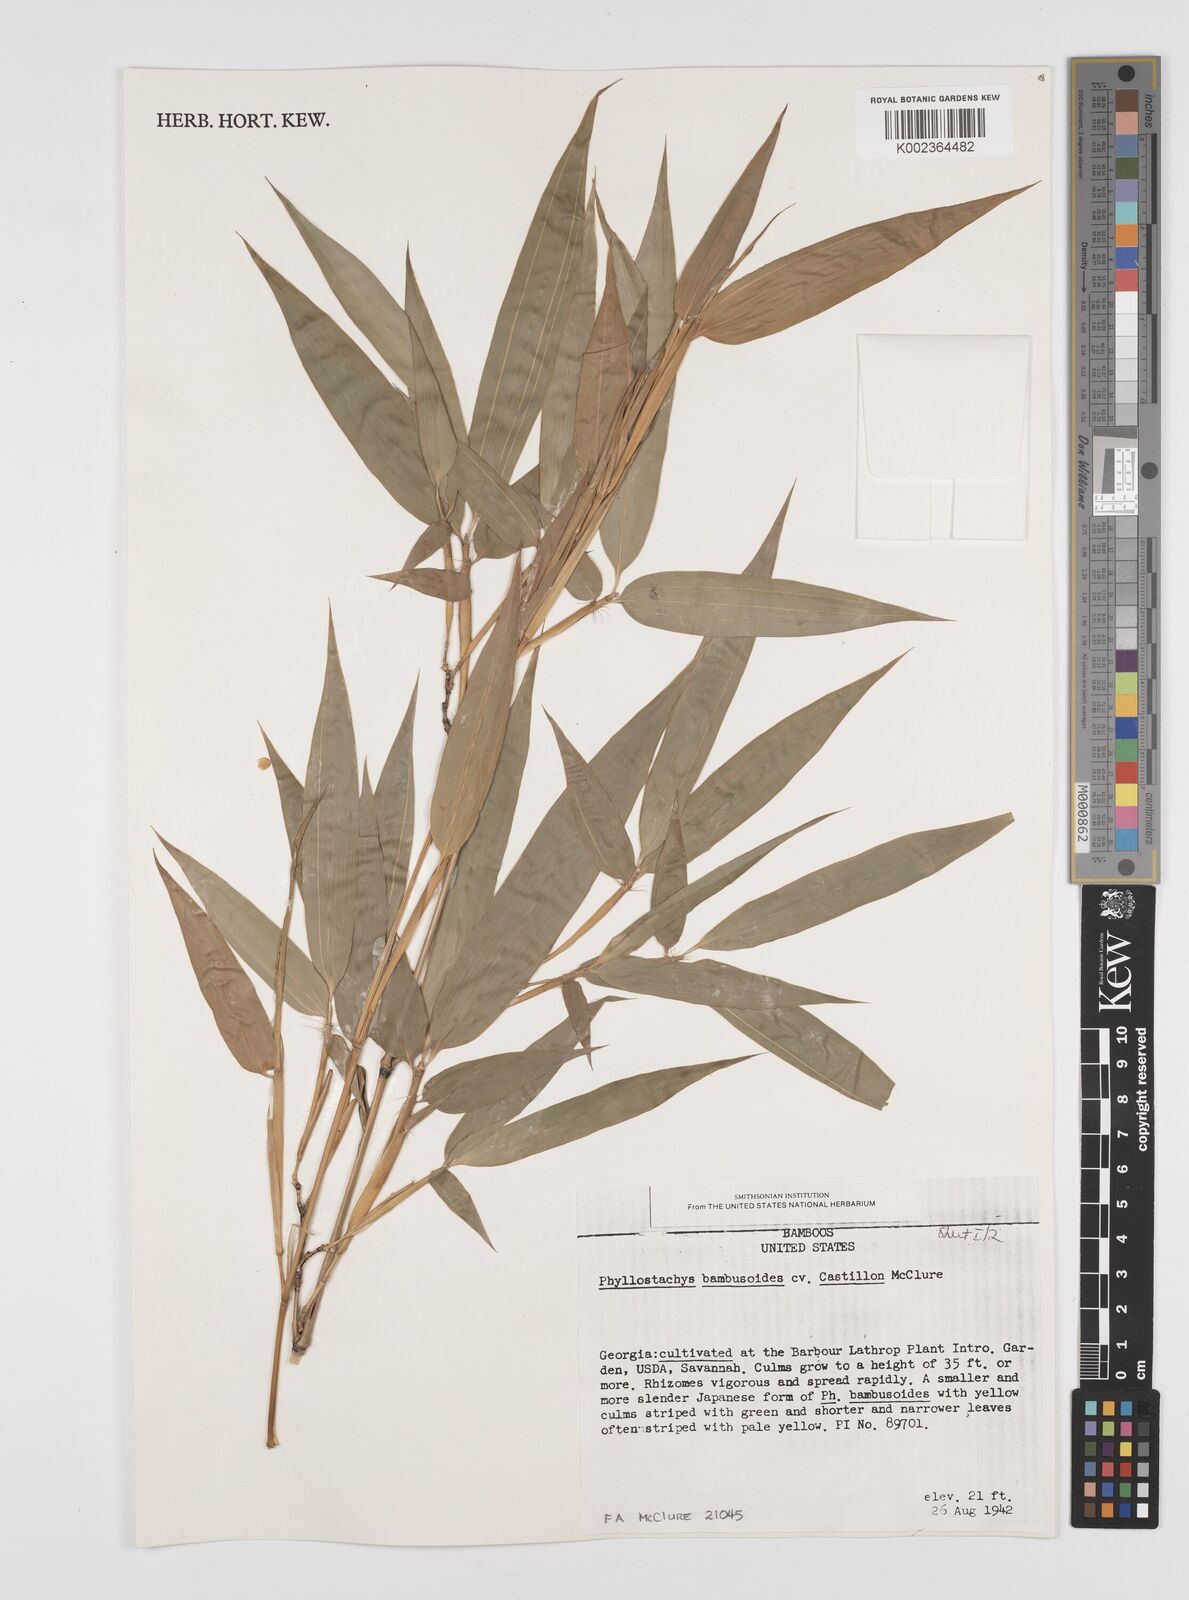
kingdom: Plantae
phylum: Tracheophyta
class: Liliopsida
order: Poales
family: Poaceae
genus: Phyllostachys
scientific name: Phyllostachys reticulata
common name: Bamboo
